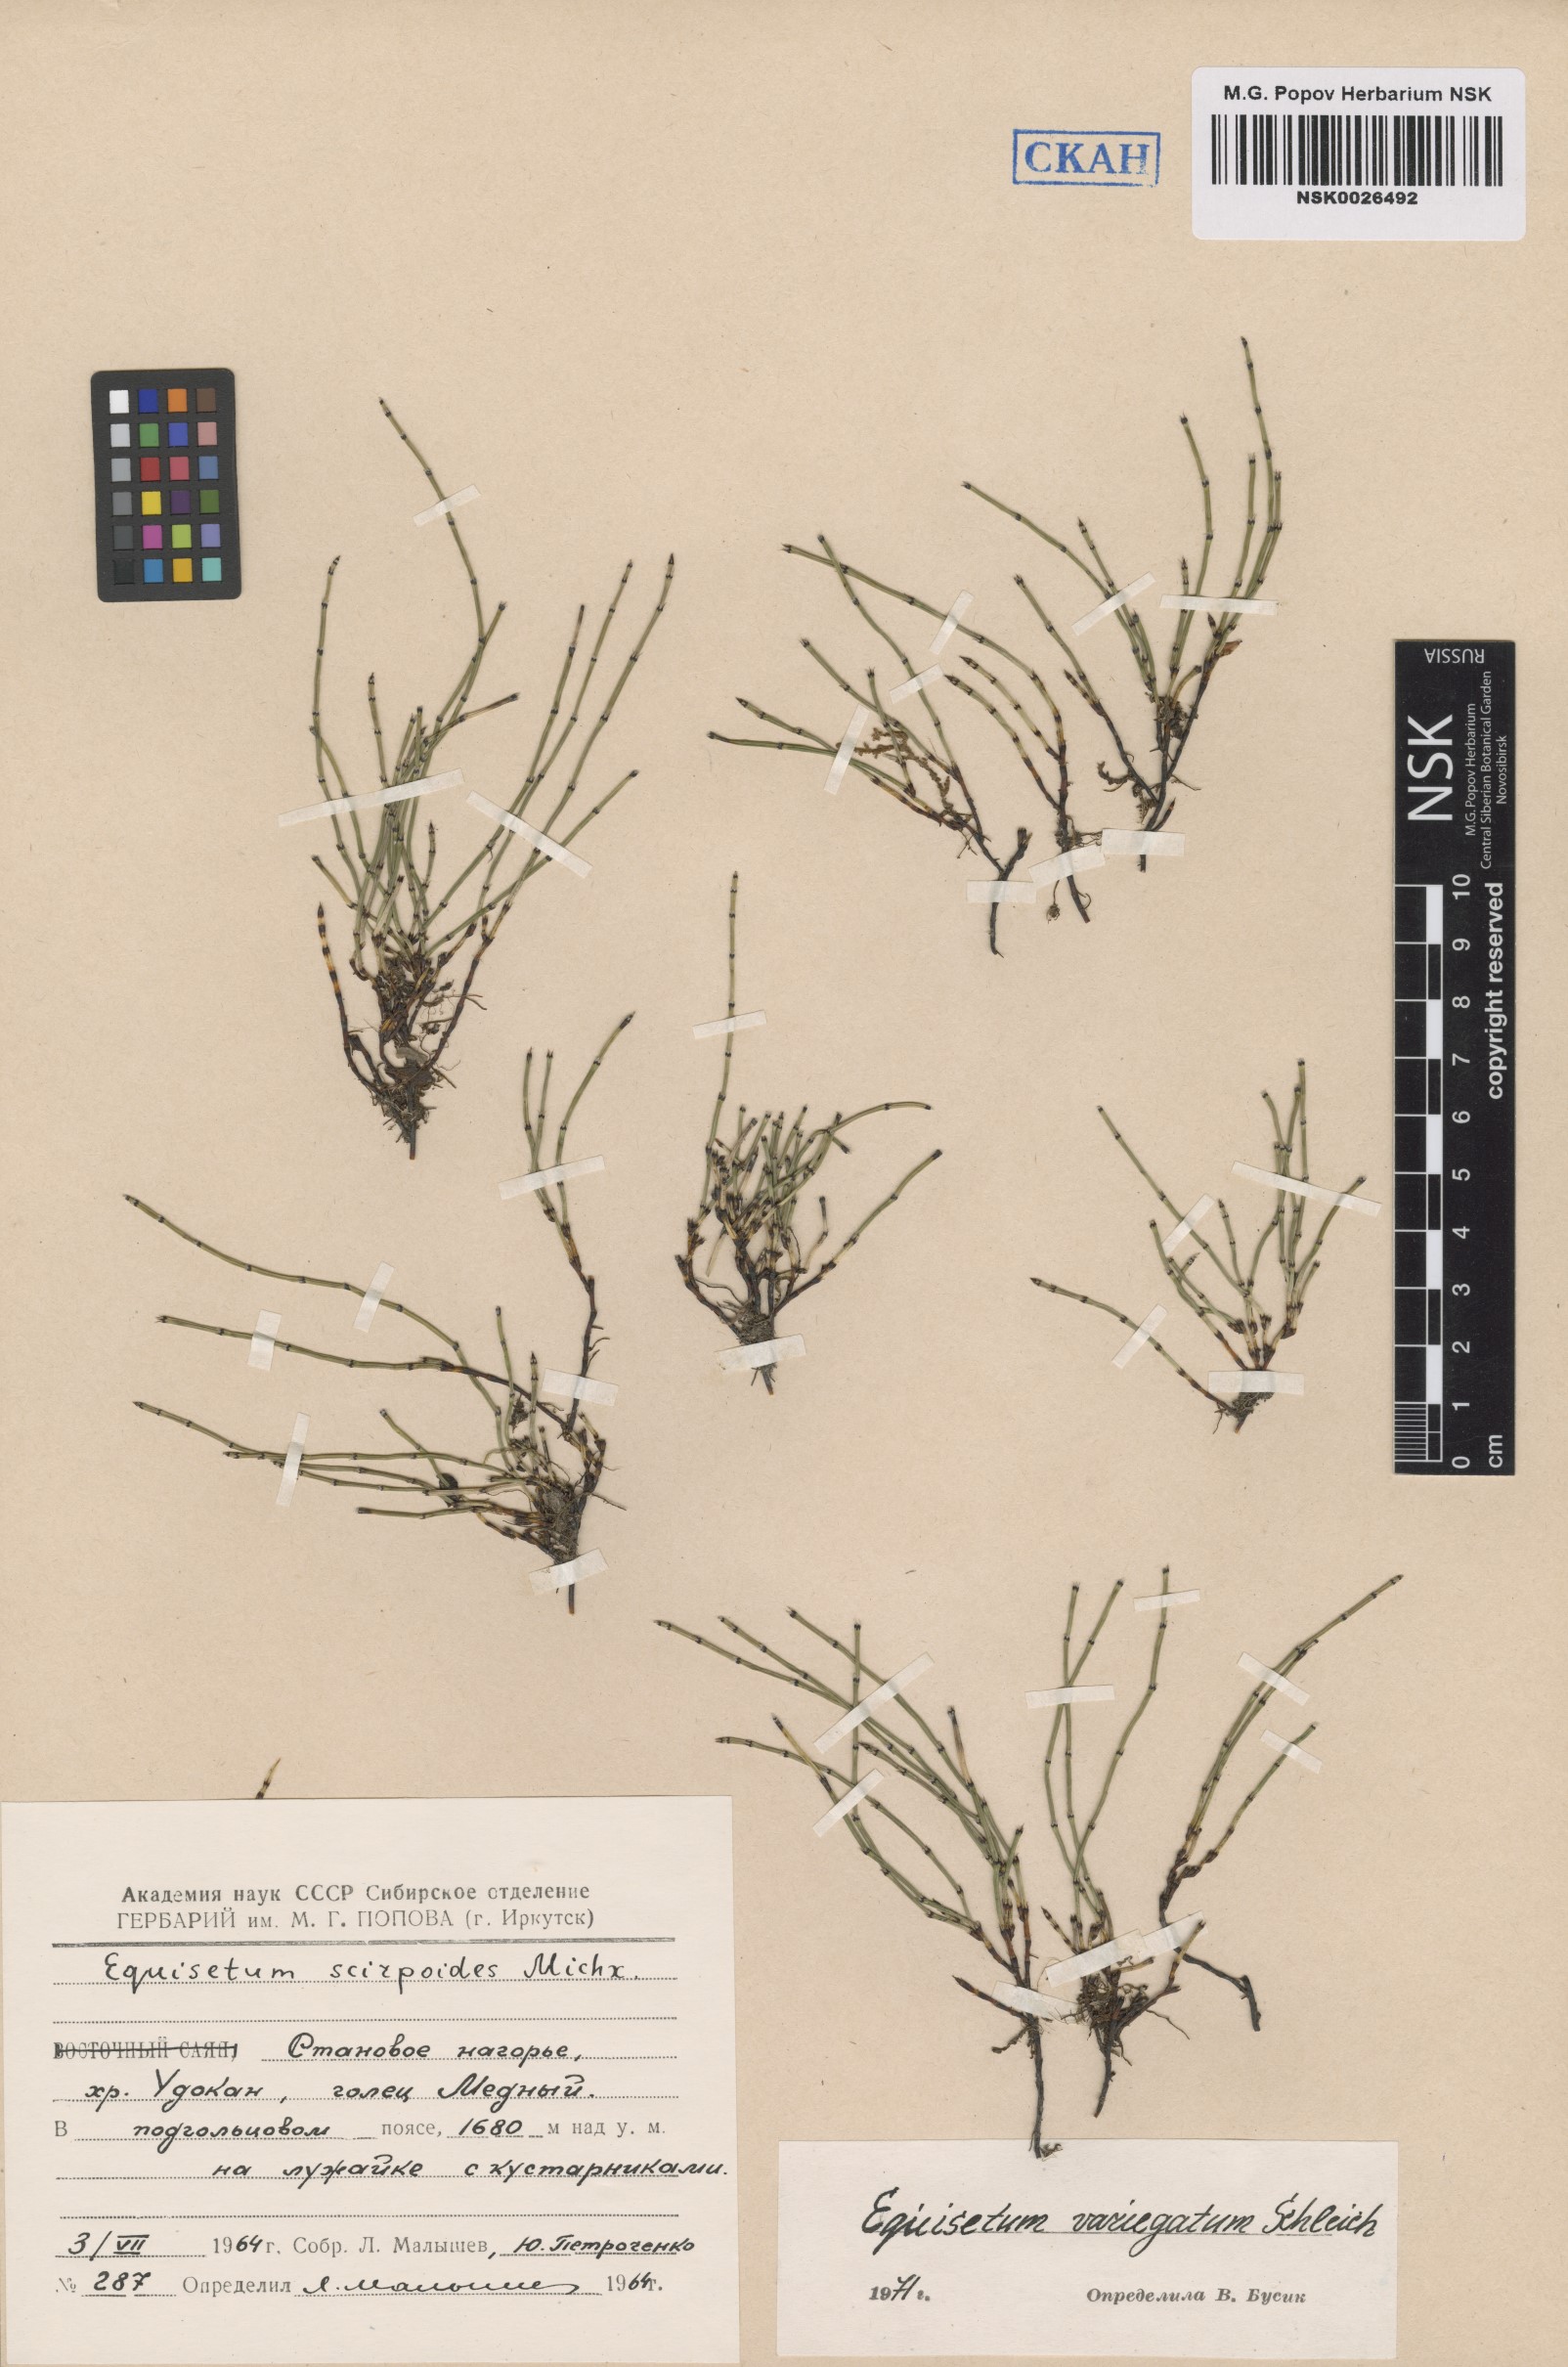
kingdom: Plantae
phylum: Tracheophyta
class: Polypodiopsida
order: Equisetales
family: Equisetaceae
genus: Equisetum
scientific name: Equisetum variegatum
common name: Variegated horsetail
